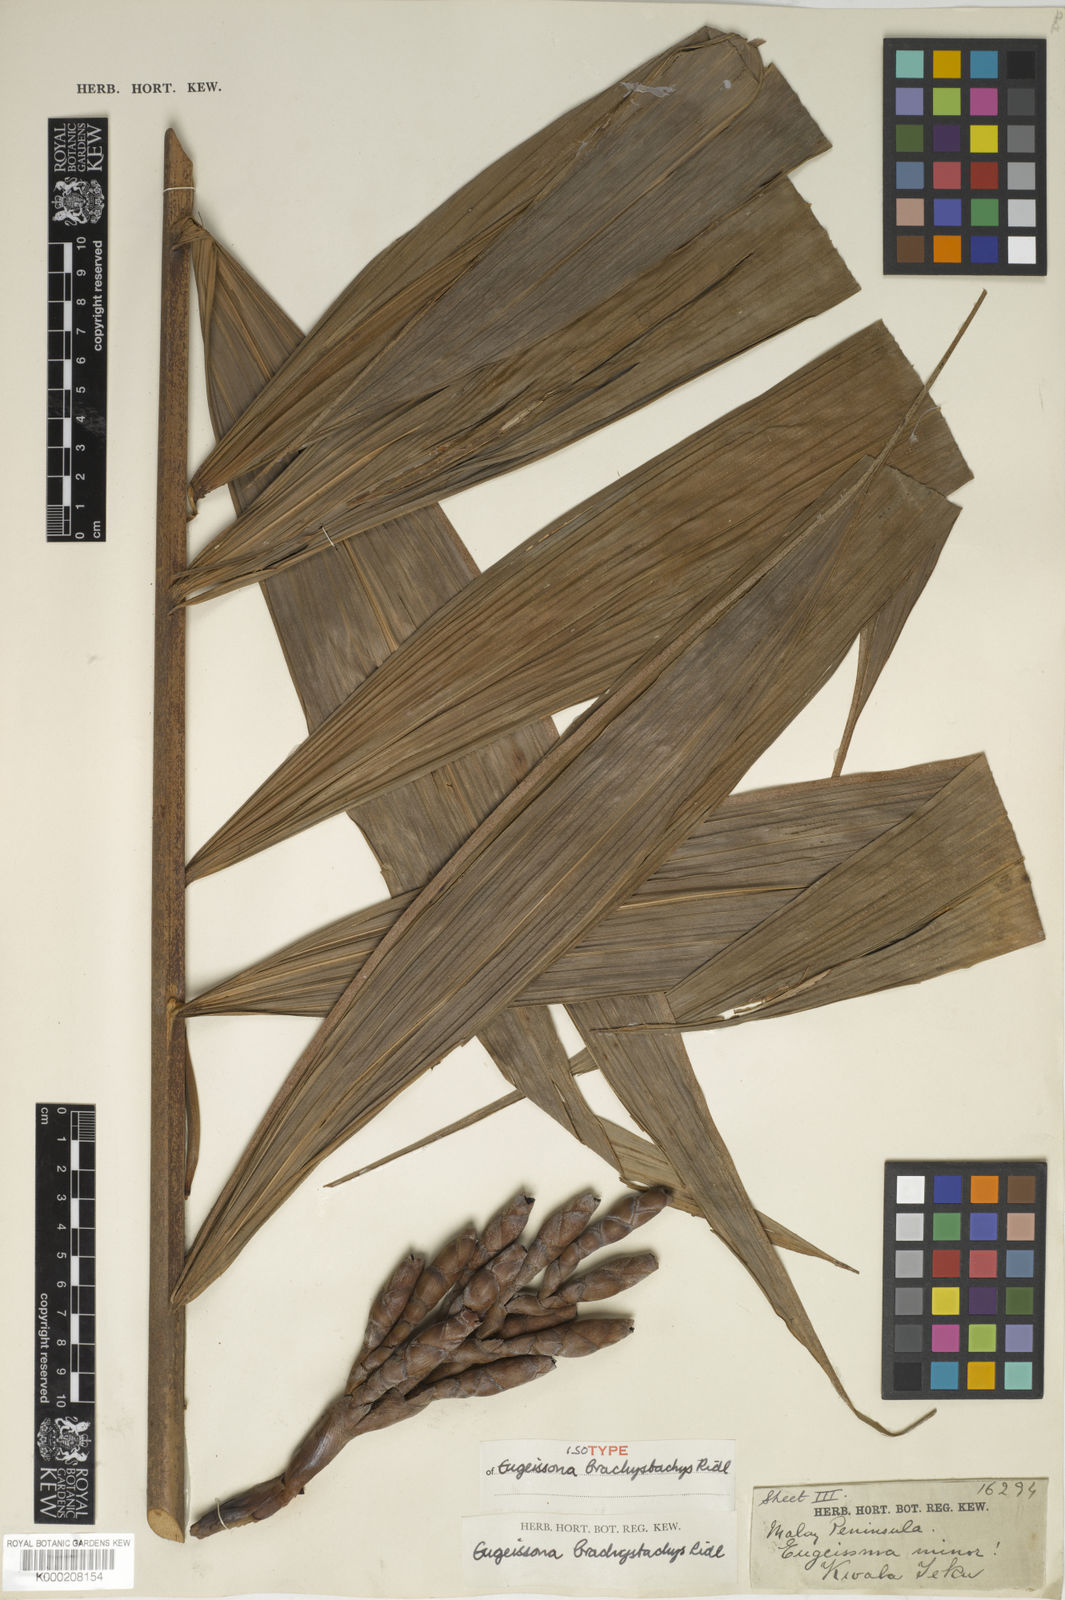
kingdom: Plantae
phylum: Tracheophyta
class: Liliopsida
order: Arecales
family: Arecaceae
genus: Eugeissona
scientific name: Eugeissona brachystachys
